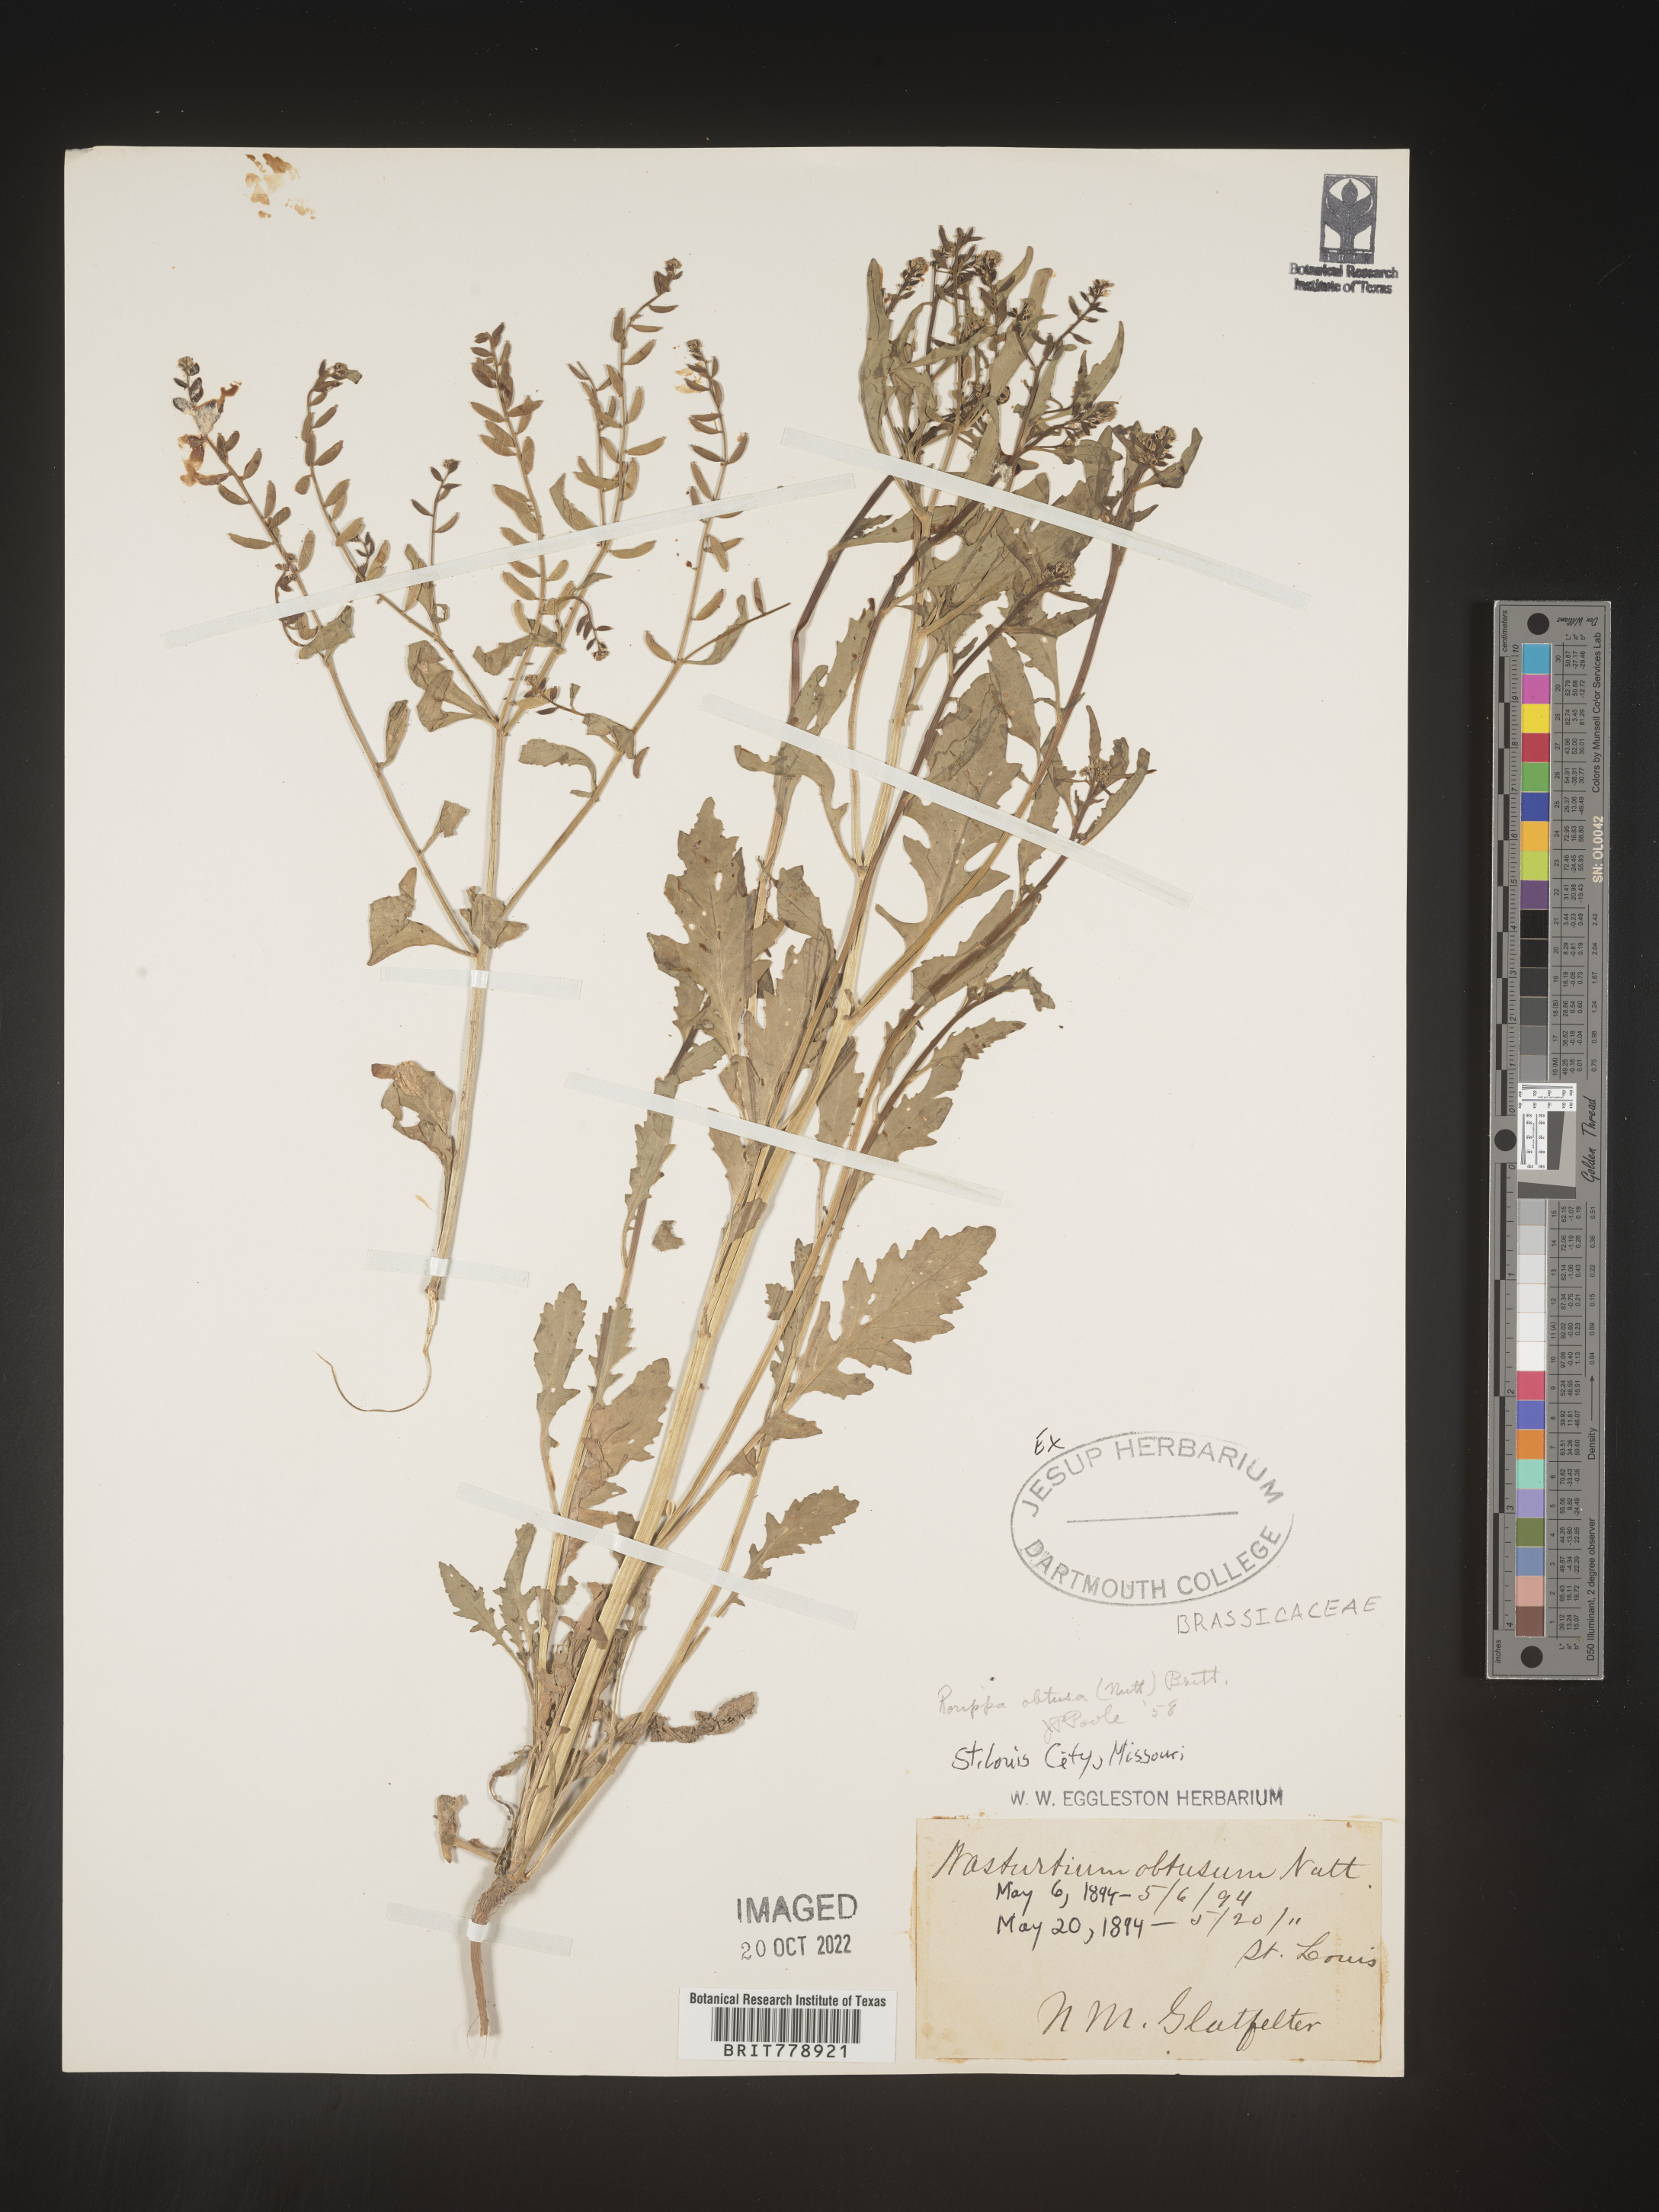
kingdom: Plantae
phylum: Tracheophyta
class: Magnoliopsida
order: Brassicales
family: Brassicaceae
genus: Rorippa
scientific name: Rorippa teres
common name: Southern marsh yellowcress
